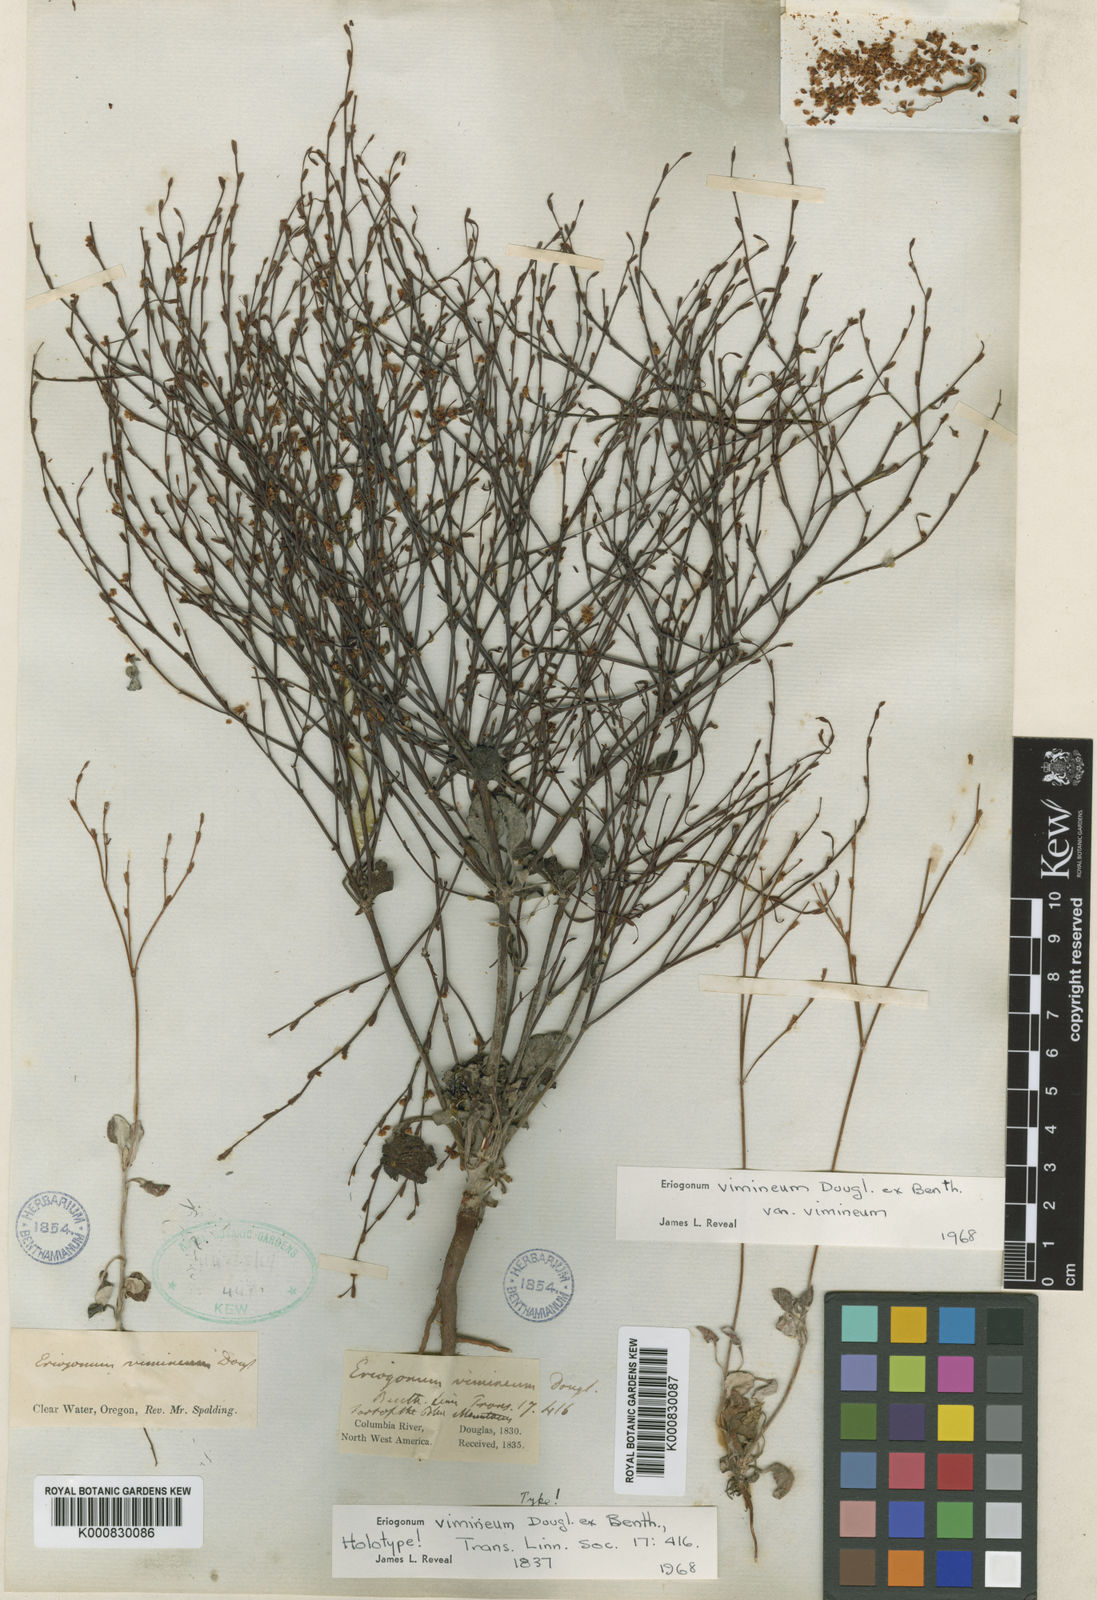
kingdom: Plantae
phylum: Tracheophyta
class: Magnoliopsida
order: Caryophyllales
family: Polygonaceae
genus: Eriogonum
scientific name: Eriogonum vimineum
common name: Wicker buckwheat
